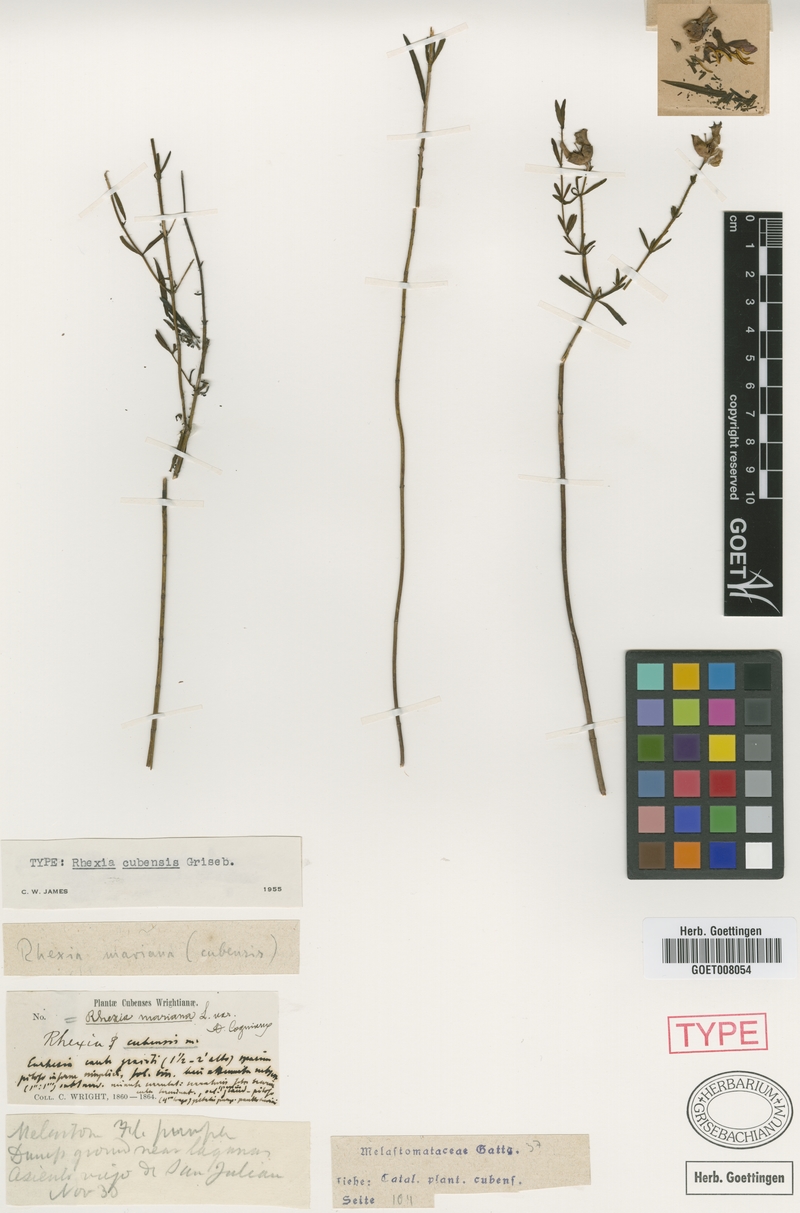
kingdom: Plantae
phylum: Tracheophyta
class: Magnoliopsida
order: Myrtales
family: Melastomataceae
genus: Rhexia
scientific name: Rhexia cubensis
